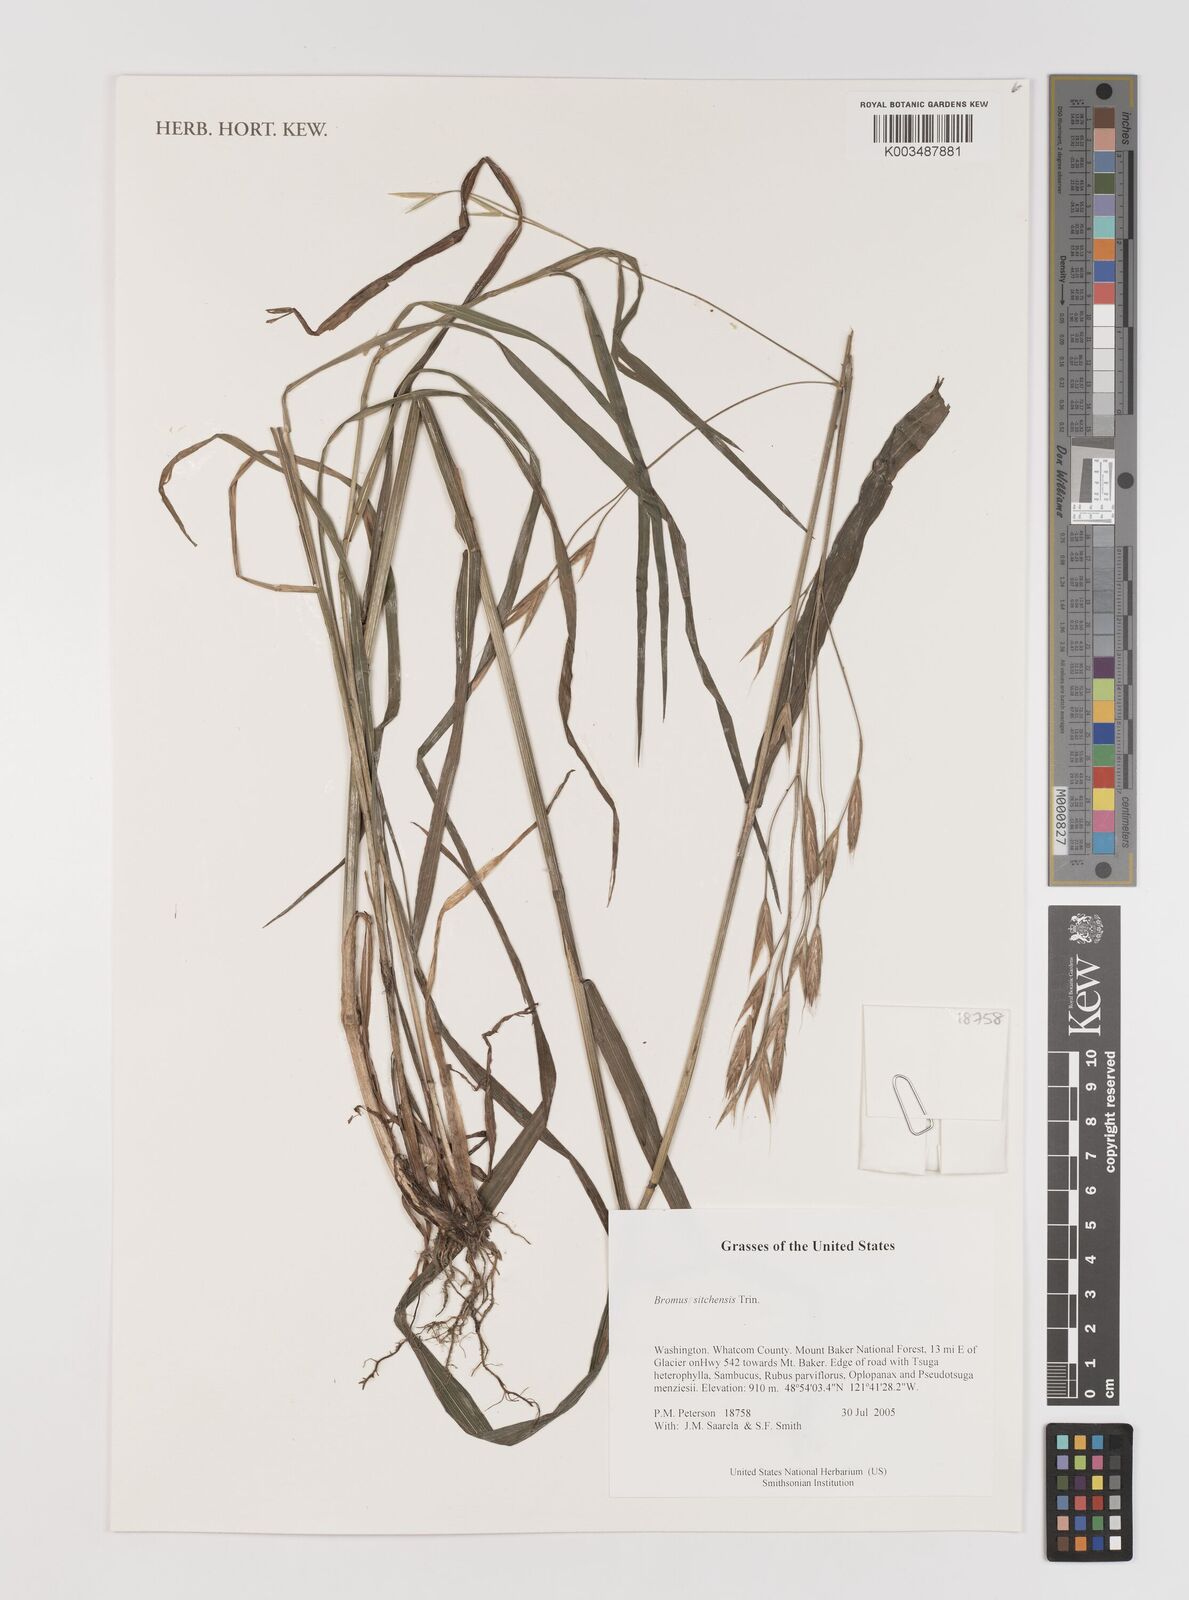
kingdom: Plantae
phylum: Tracheophyta
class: Liliopsida
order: Poales
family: Poaceae
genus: Bromus
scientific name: Bromus sitchensis
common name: Sitka brome
